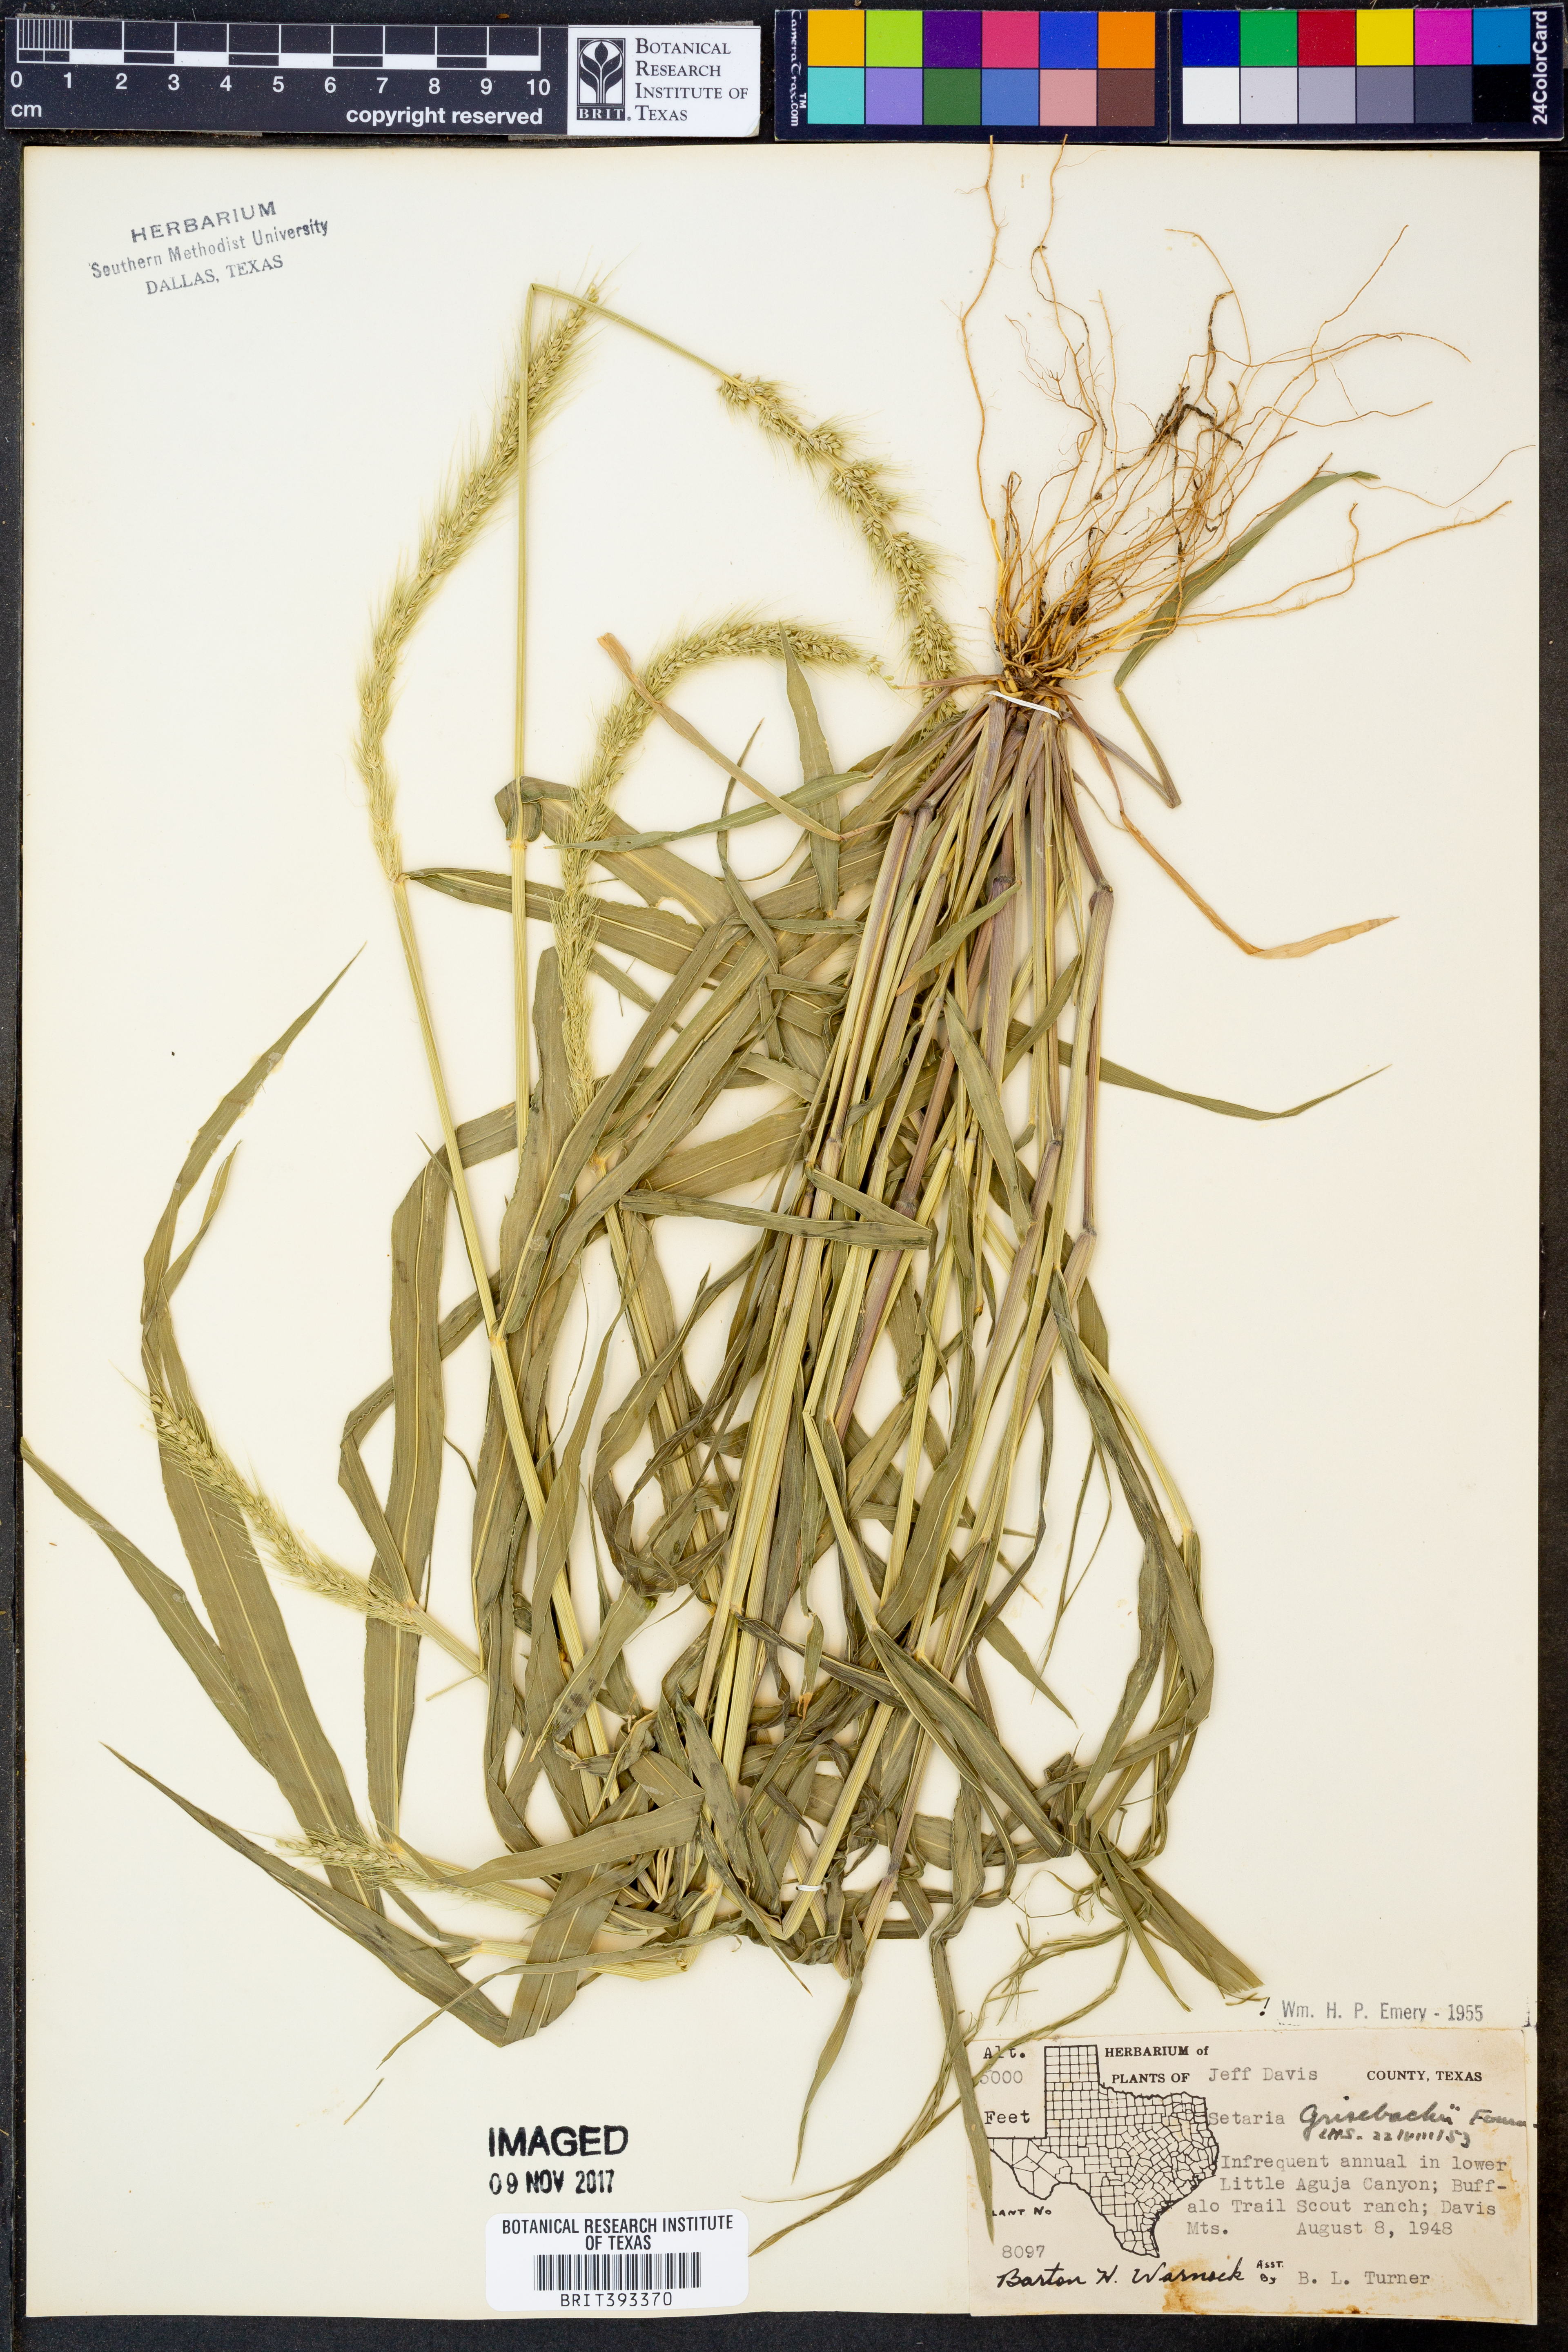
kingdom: Plantae
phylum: Tracheophyta
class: Liliopsida
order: Poales
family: Poaceae
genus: Setaria
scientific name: Setaria grisebachii
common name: Grisebach's bristle grass
